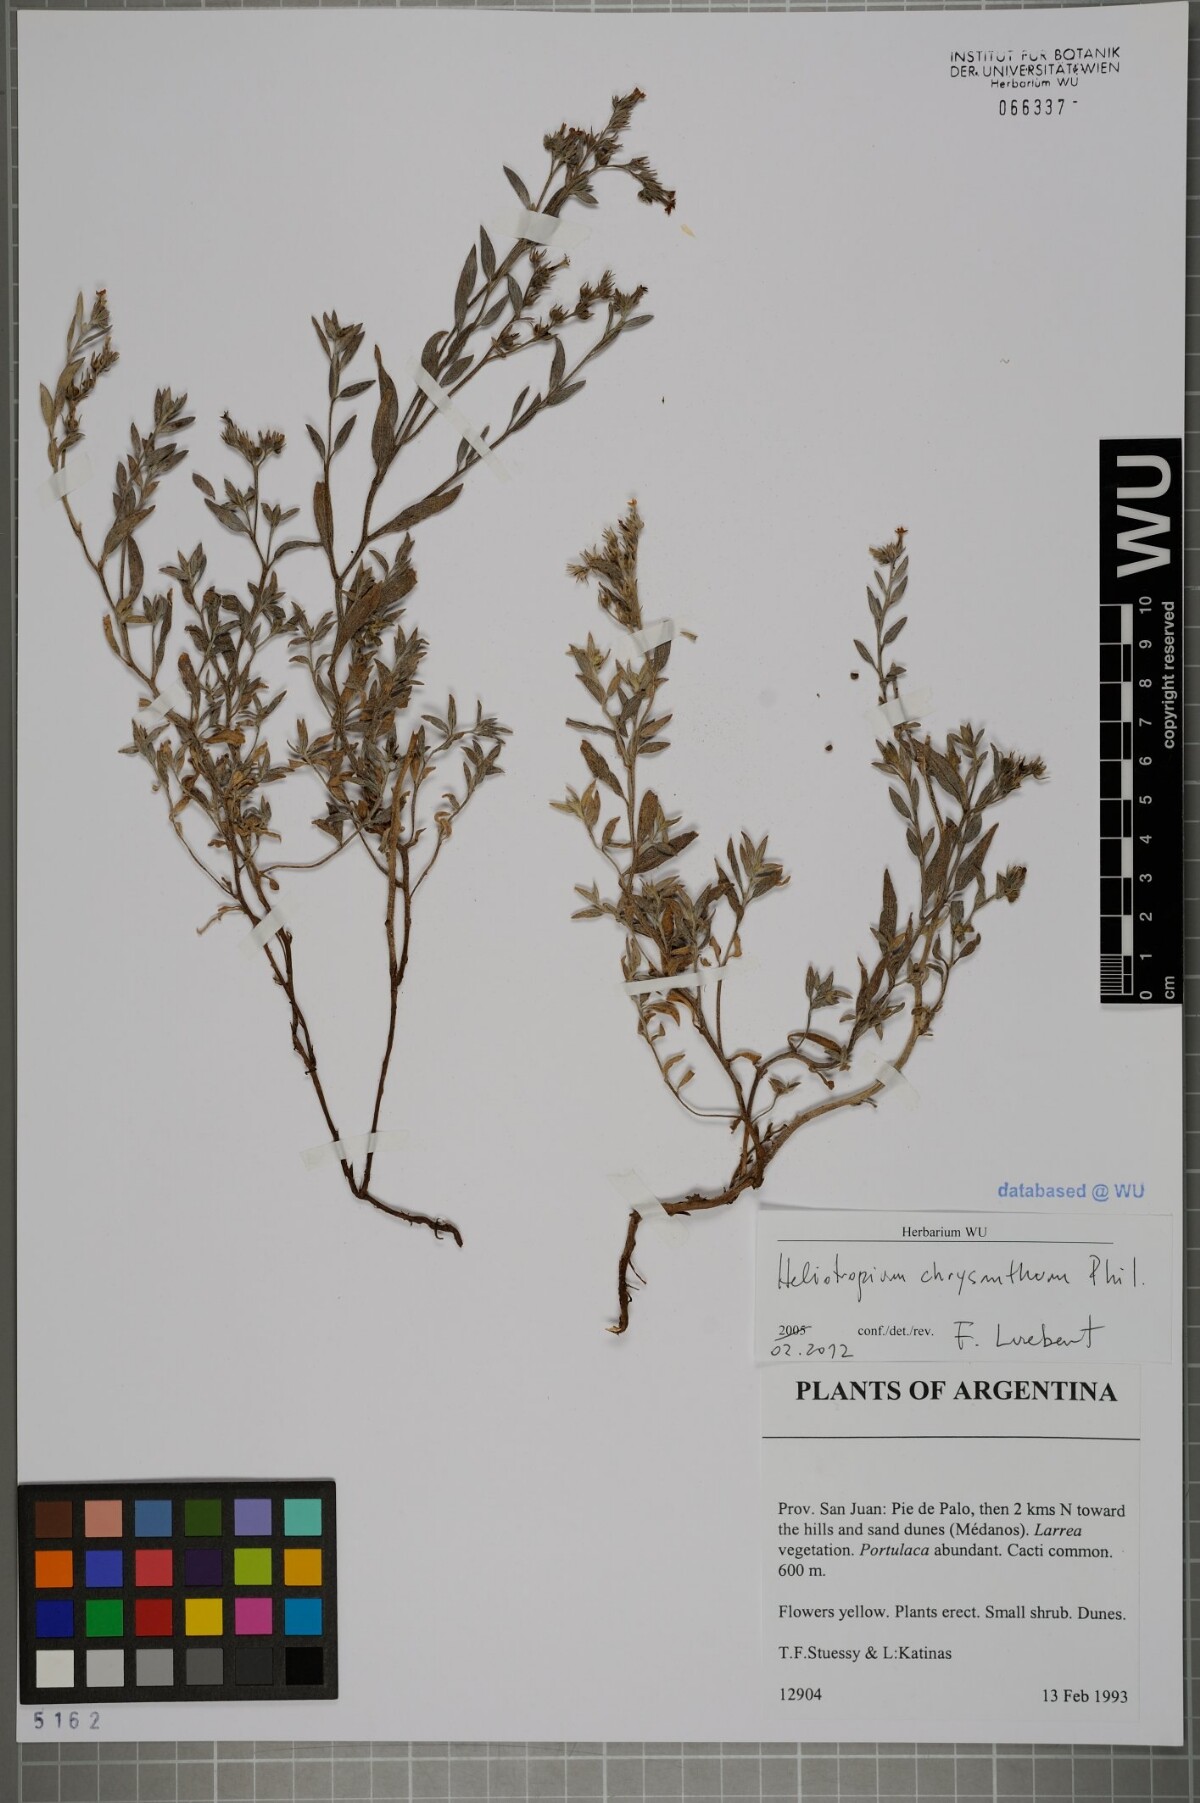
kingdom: Plantae
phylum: Tracheophyta
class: Magnoliopsida
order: Boraginales
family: Heliotropiaceae
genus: Euploca
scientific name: Euploca chrysantha
